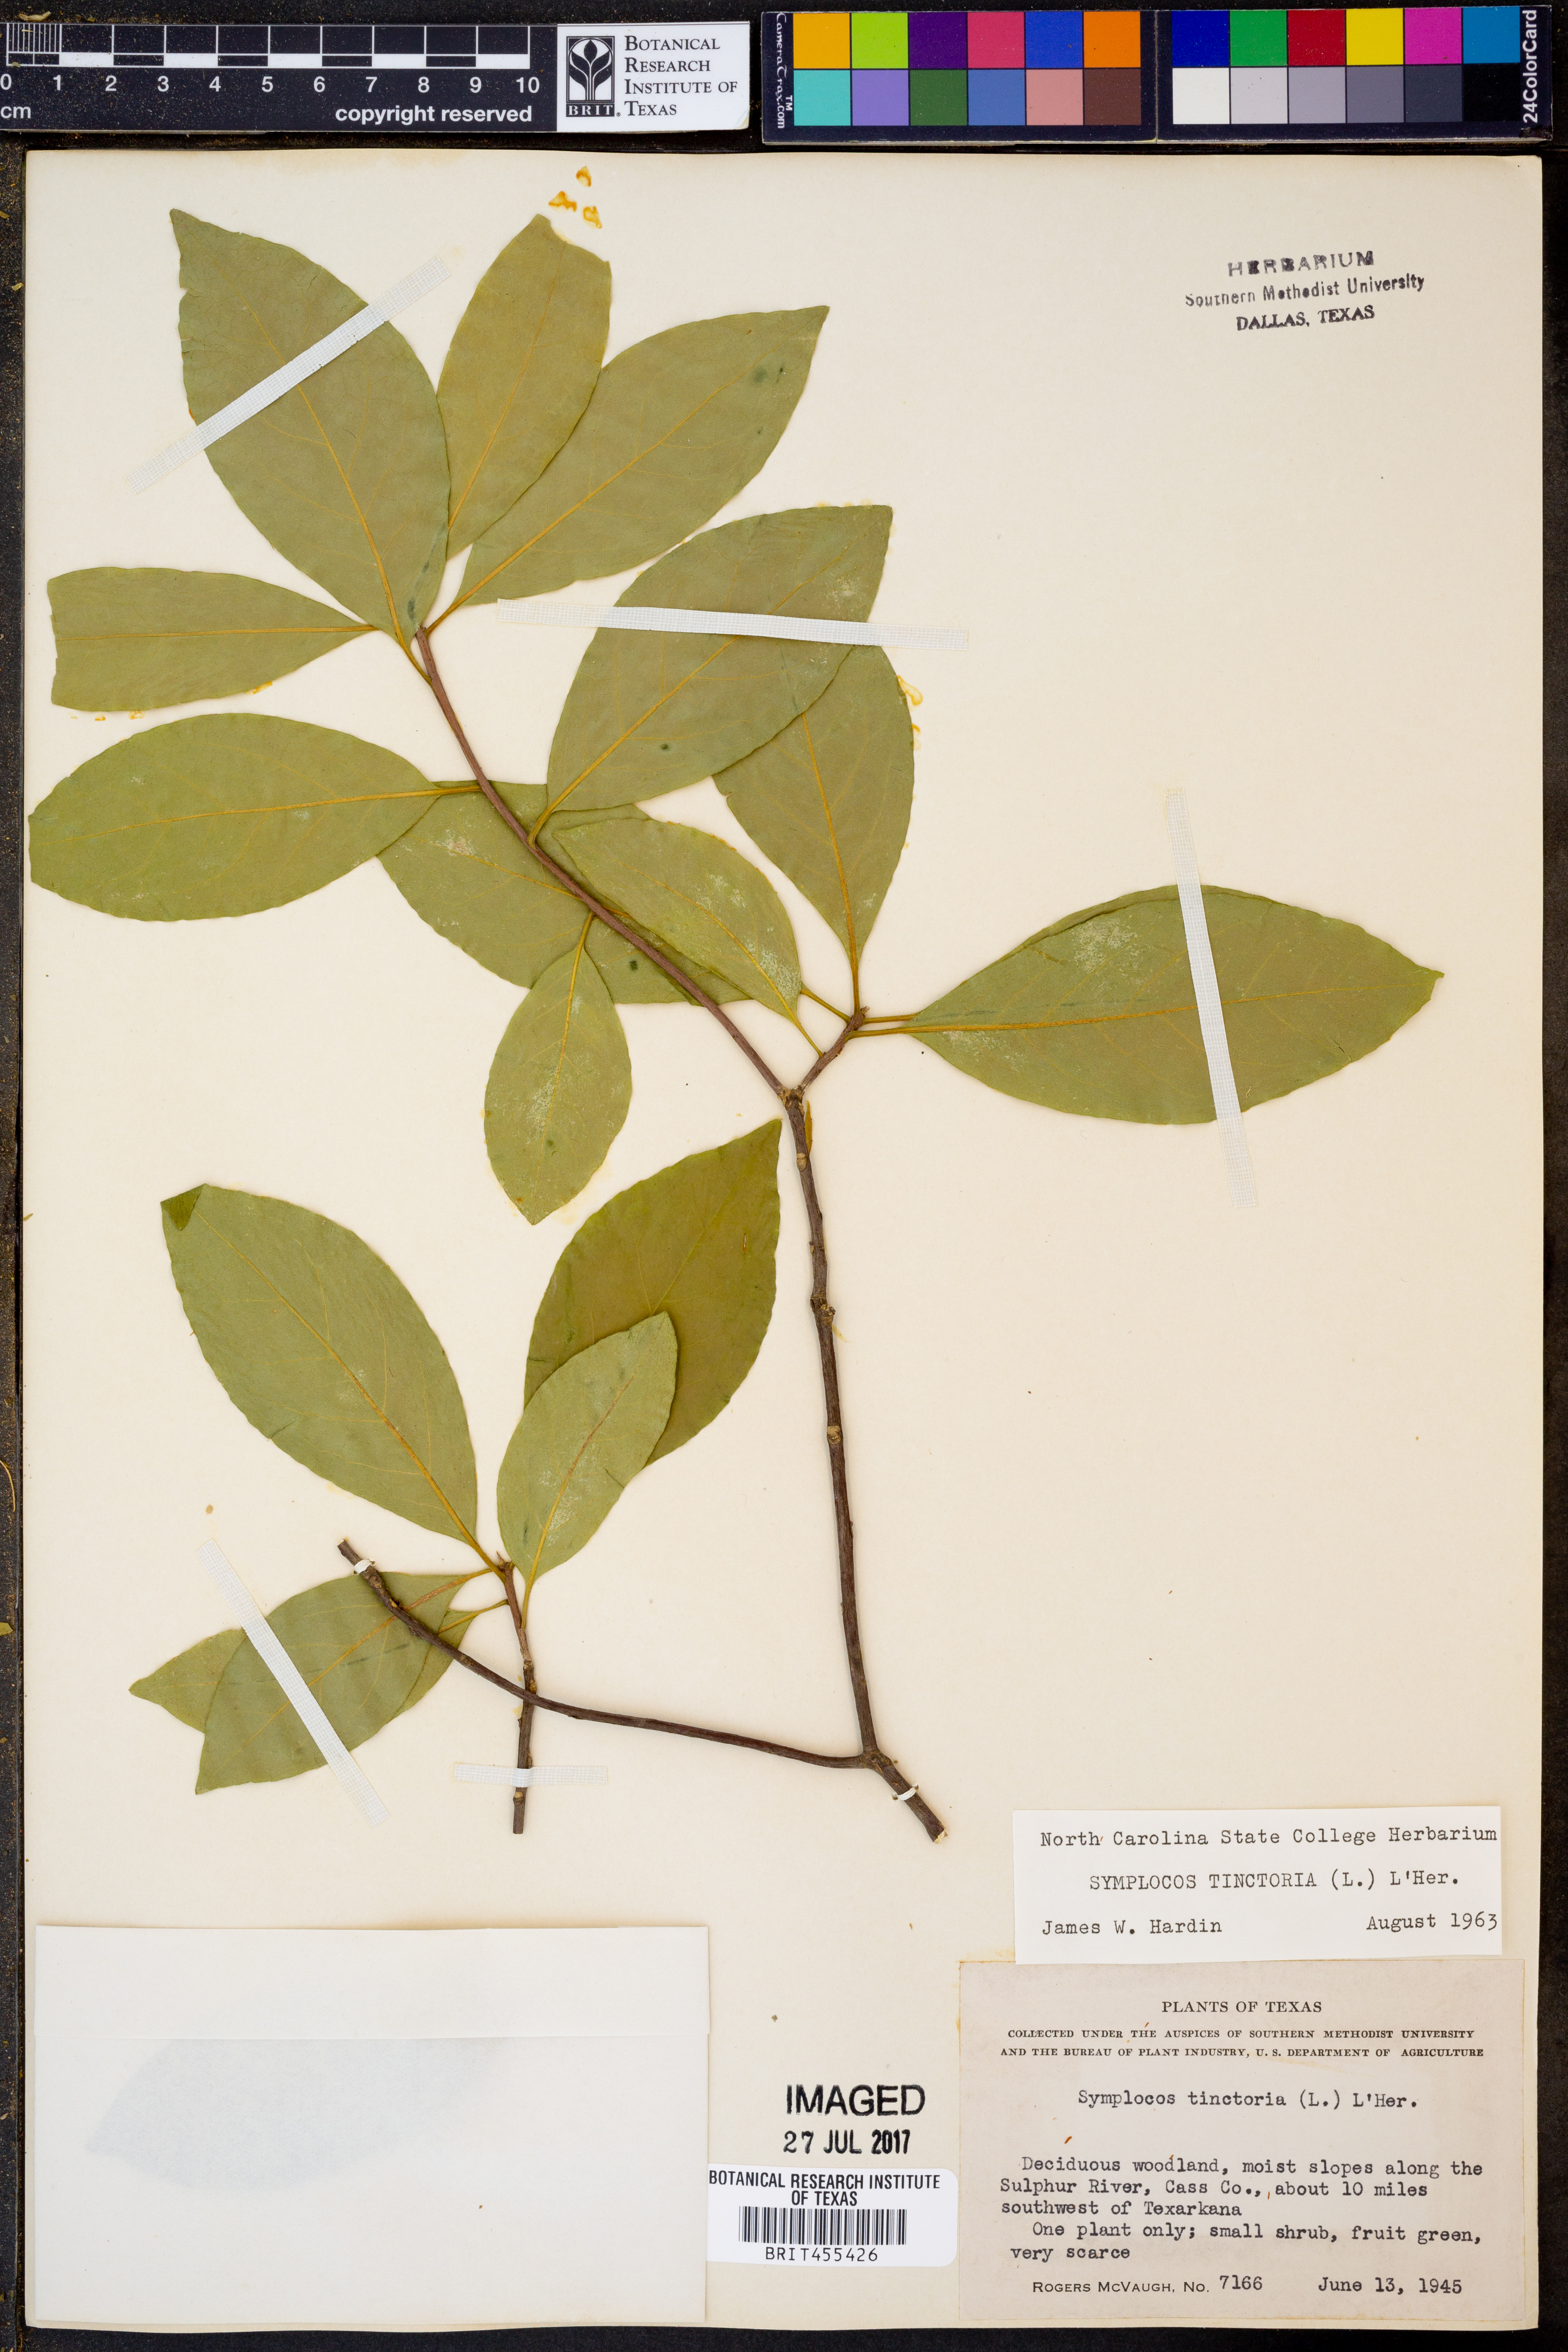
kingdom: Plantae
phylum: Tracheophyta
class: Magnoliopsida
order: Ericales
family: Symplocaceae
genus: Symplocos
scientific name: Symplocos tinctoria
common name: Horse-sugar
